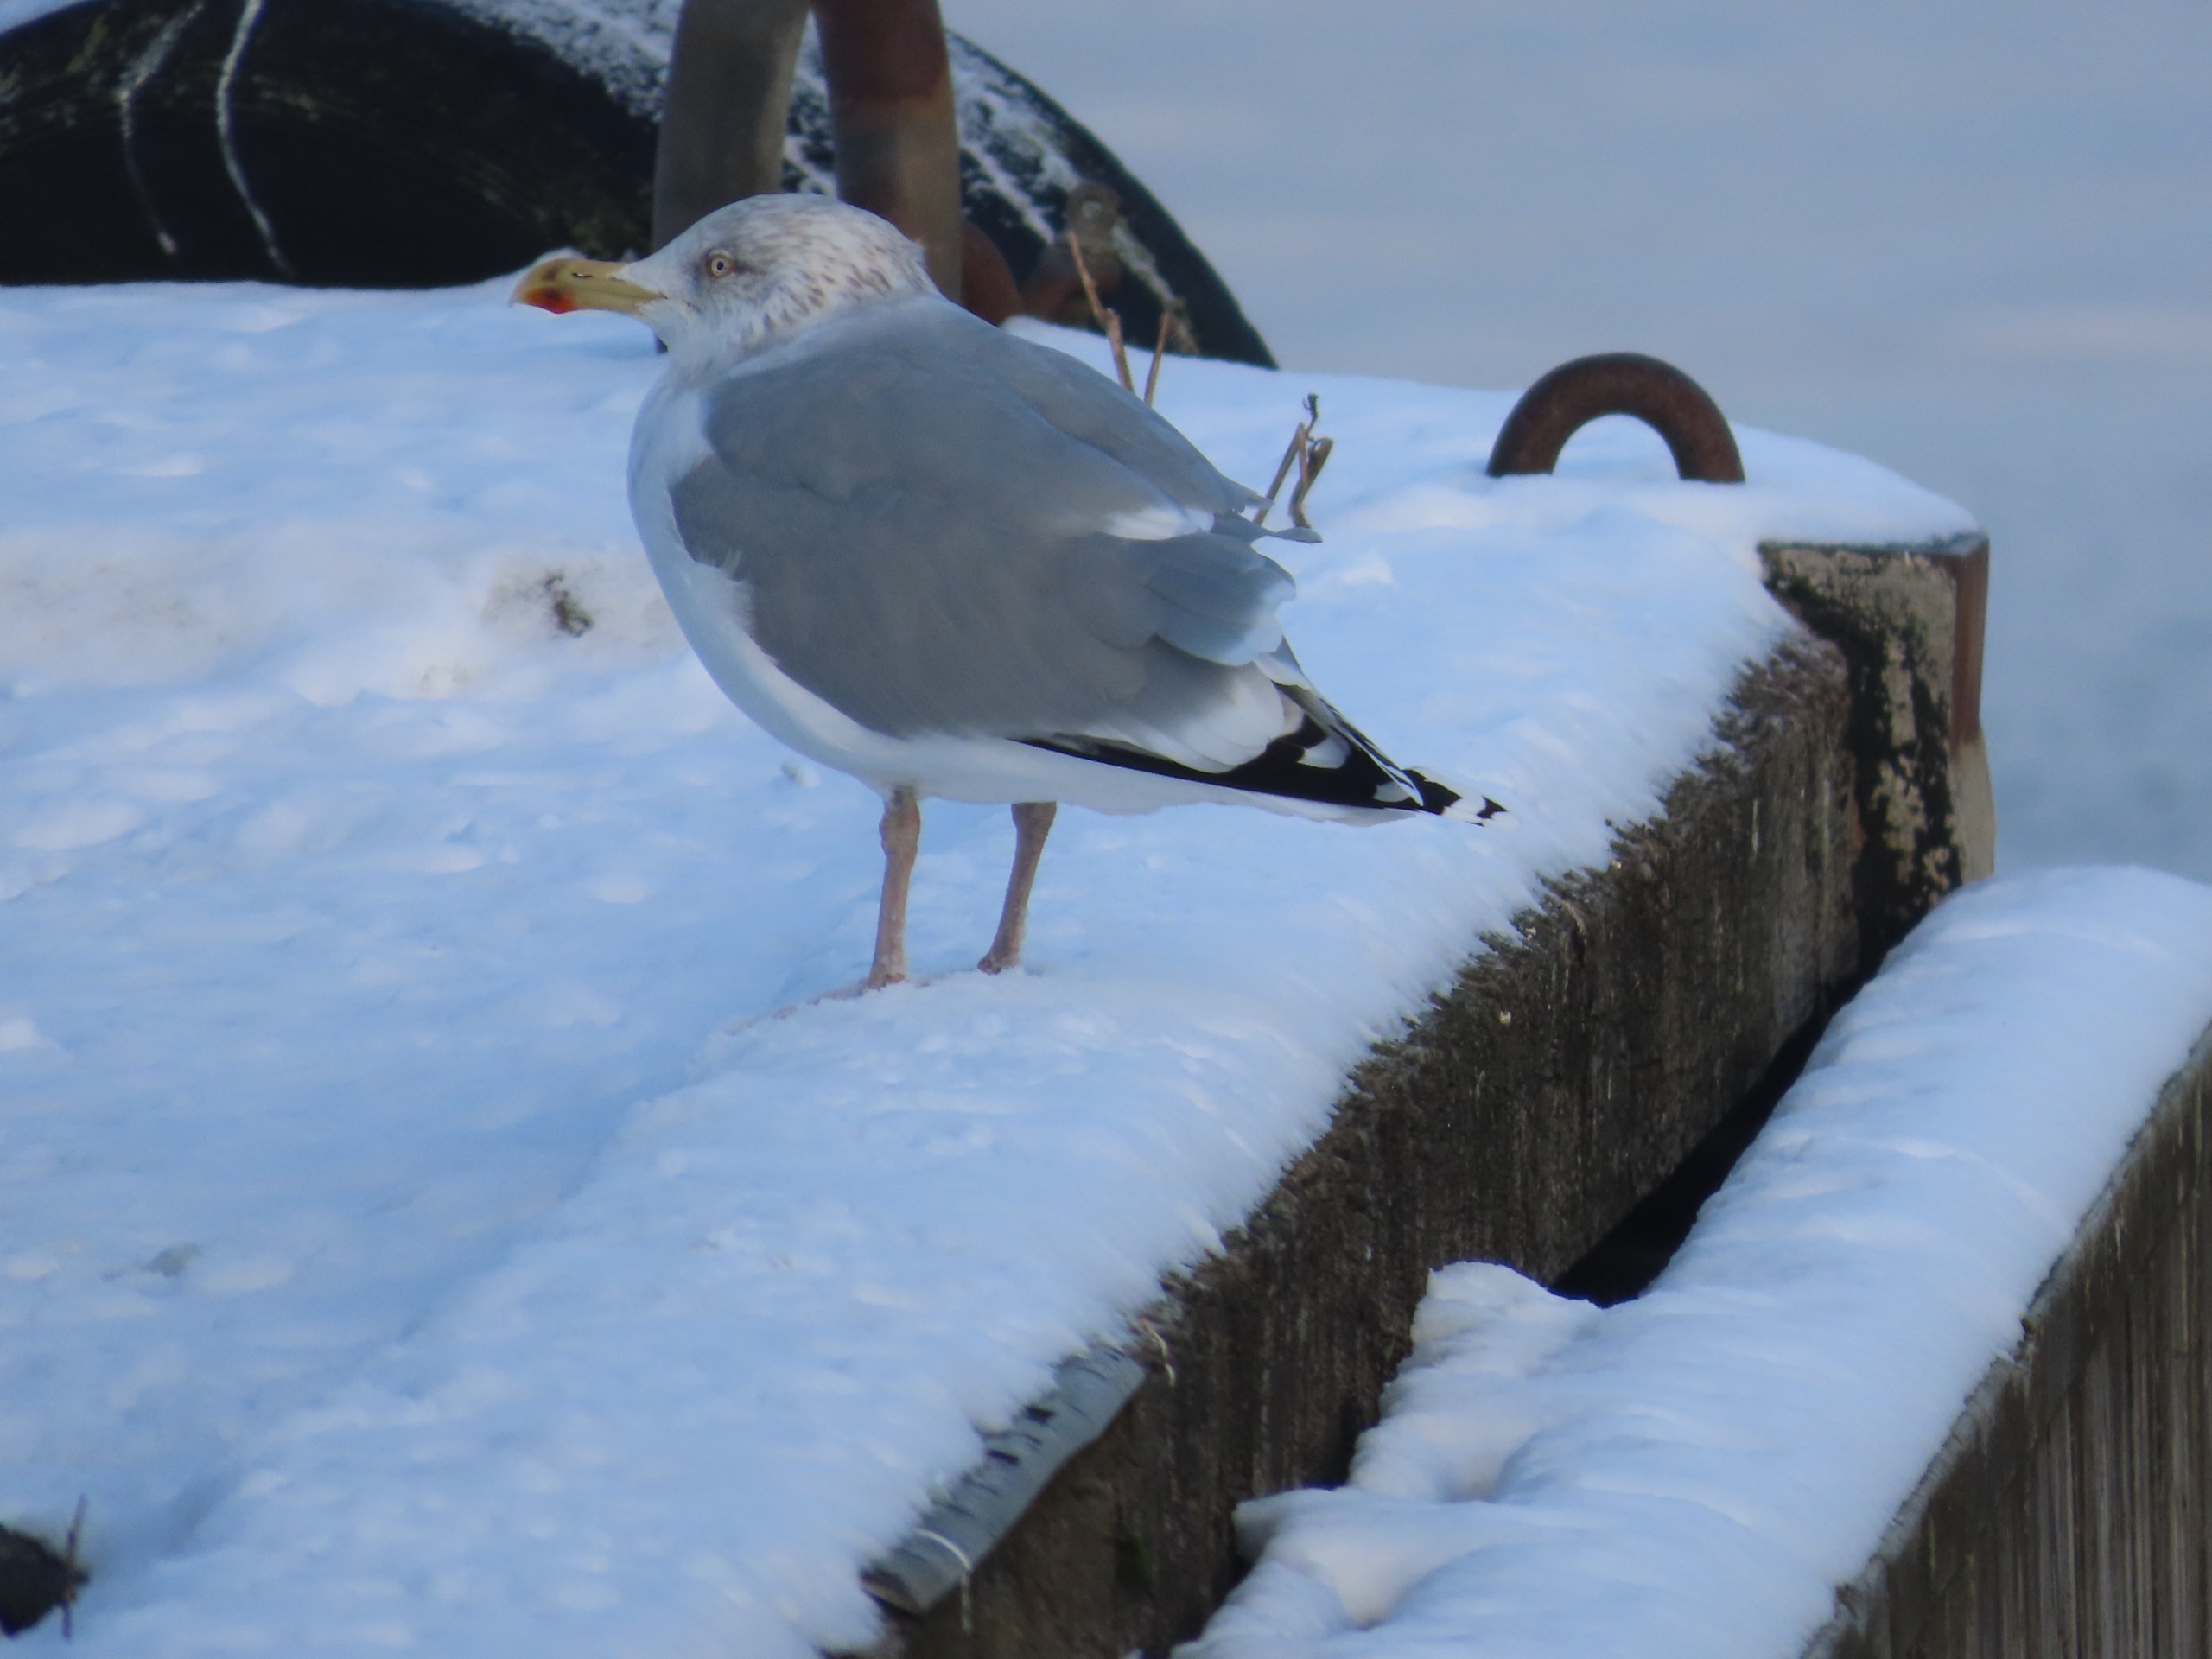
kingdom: Animalia
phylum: Chordata
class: Aves
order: Charadriiformes
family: Laridae
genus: Larus
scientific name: Larus argentatus
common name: Sølvmåge
